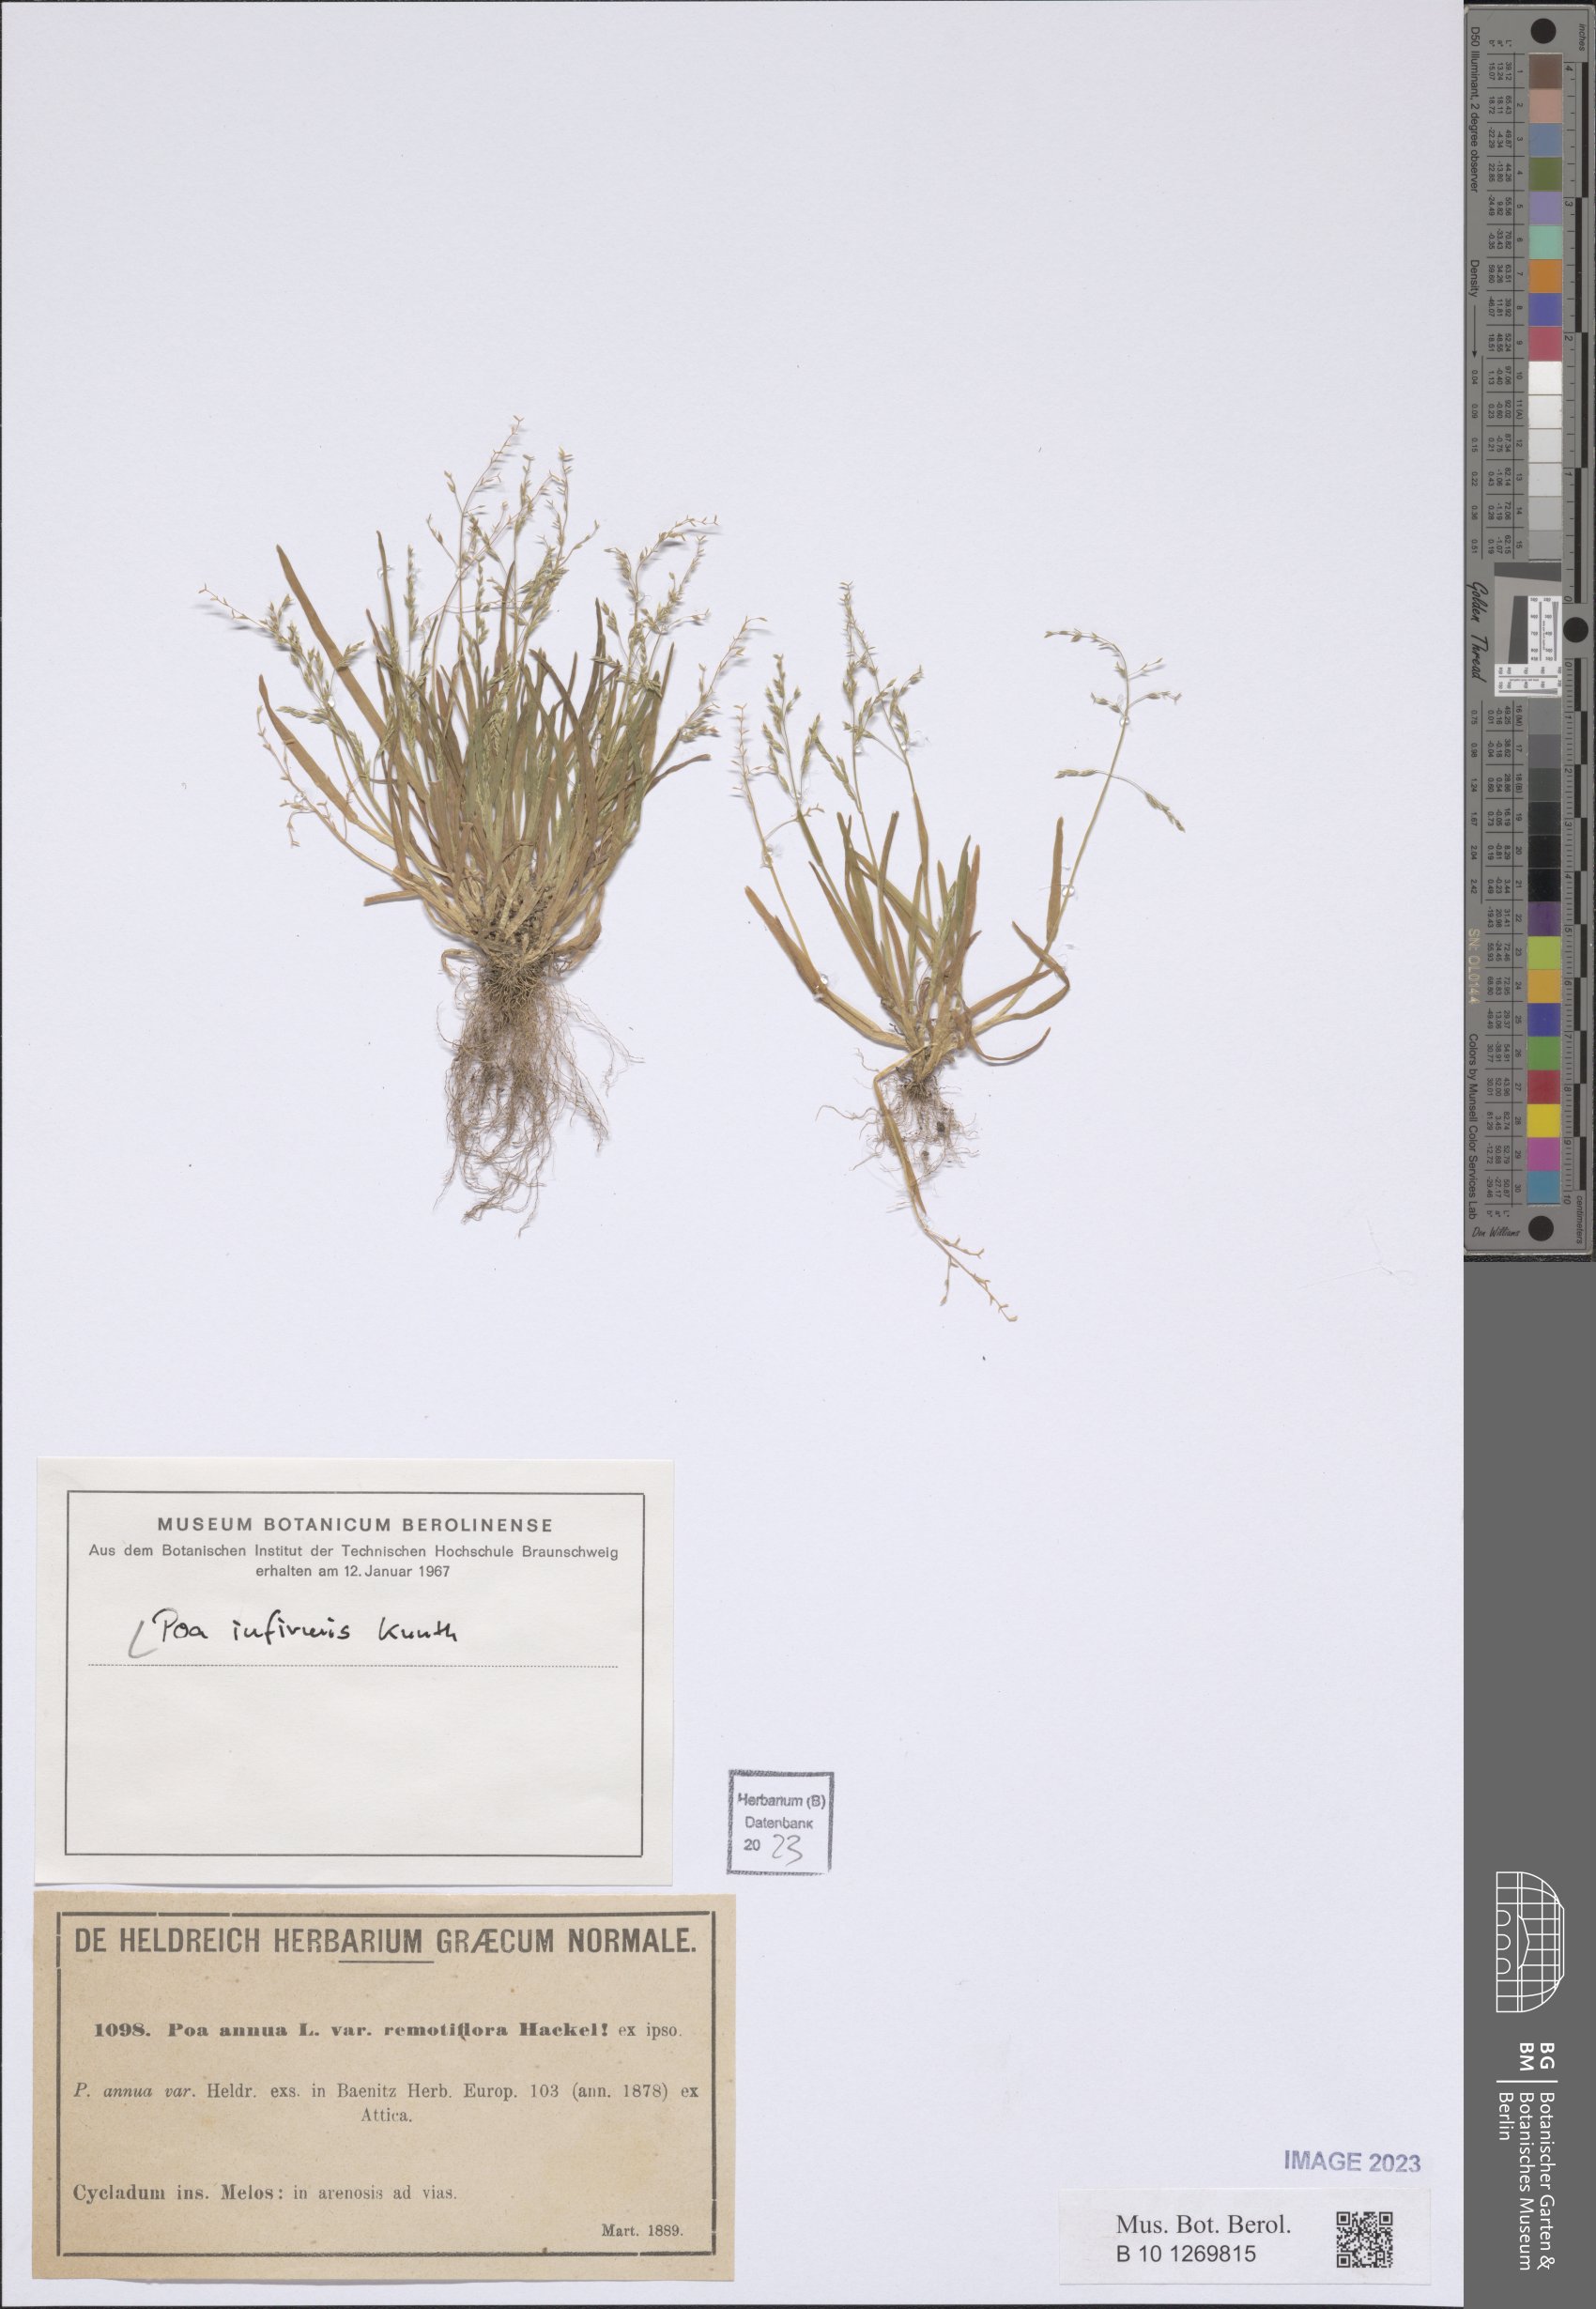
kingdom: Plantae
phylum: Tracheophyta
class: Liliopsida
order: Poales
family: Poaceae
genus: Poa
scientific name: Poa infirma
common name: Weak bluegrass
